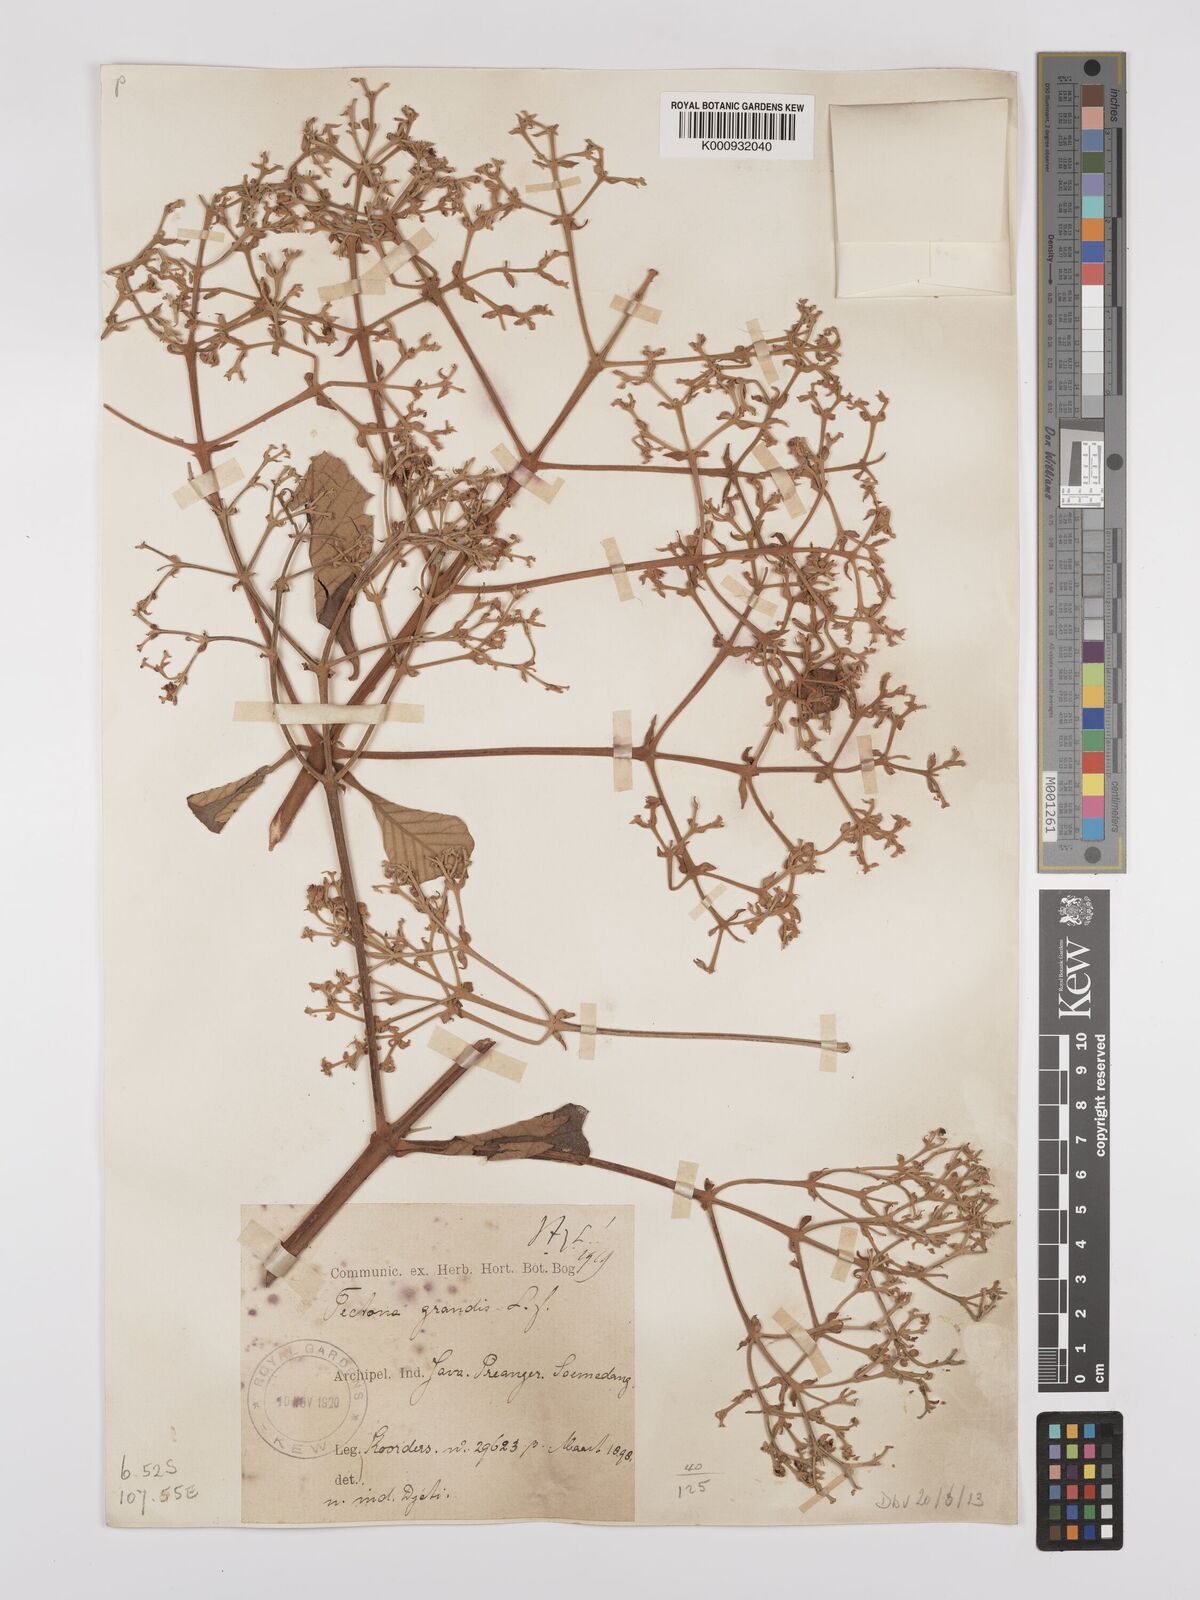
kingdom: Plantae
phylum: Tracheophyta
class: Magnoliopsida
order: Lamiales
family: Lamiaceae
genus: Tectona
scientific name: Tectona grandis
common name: Teak
